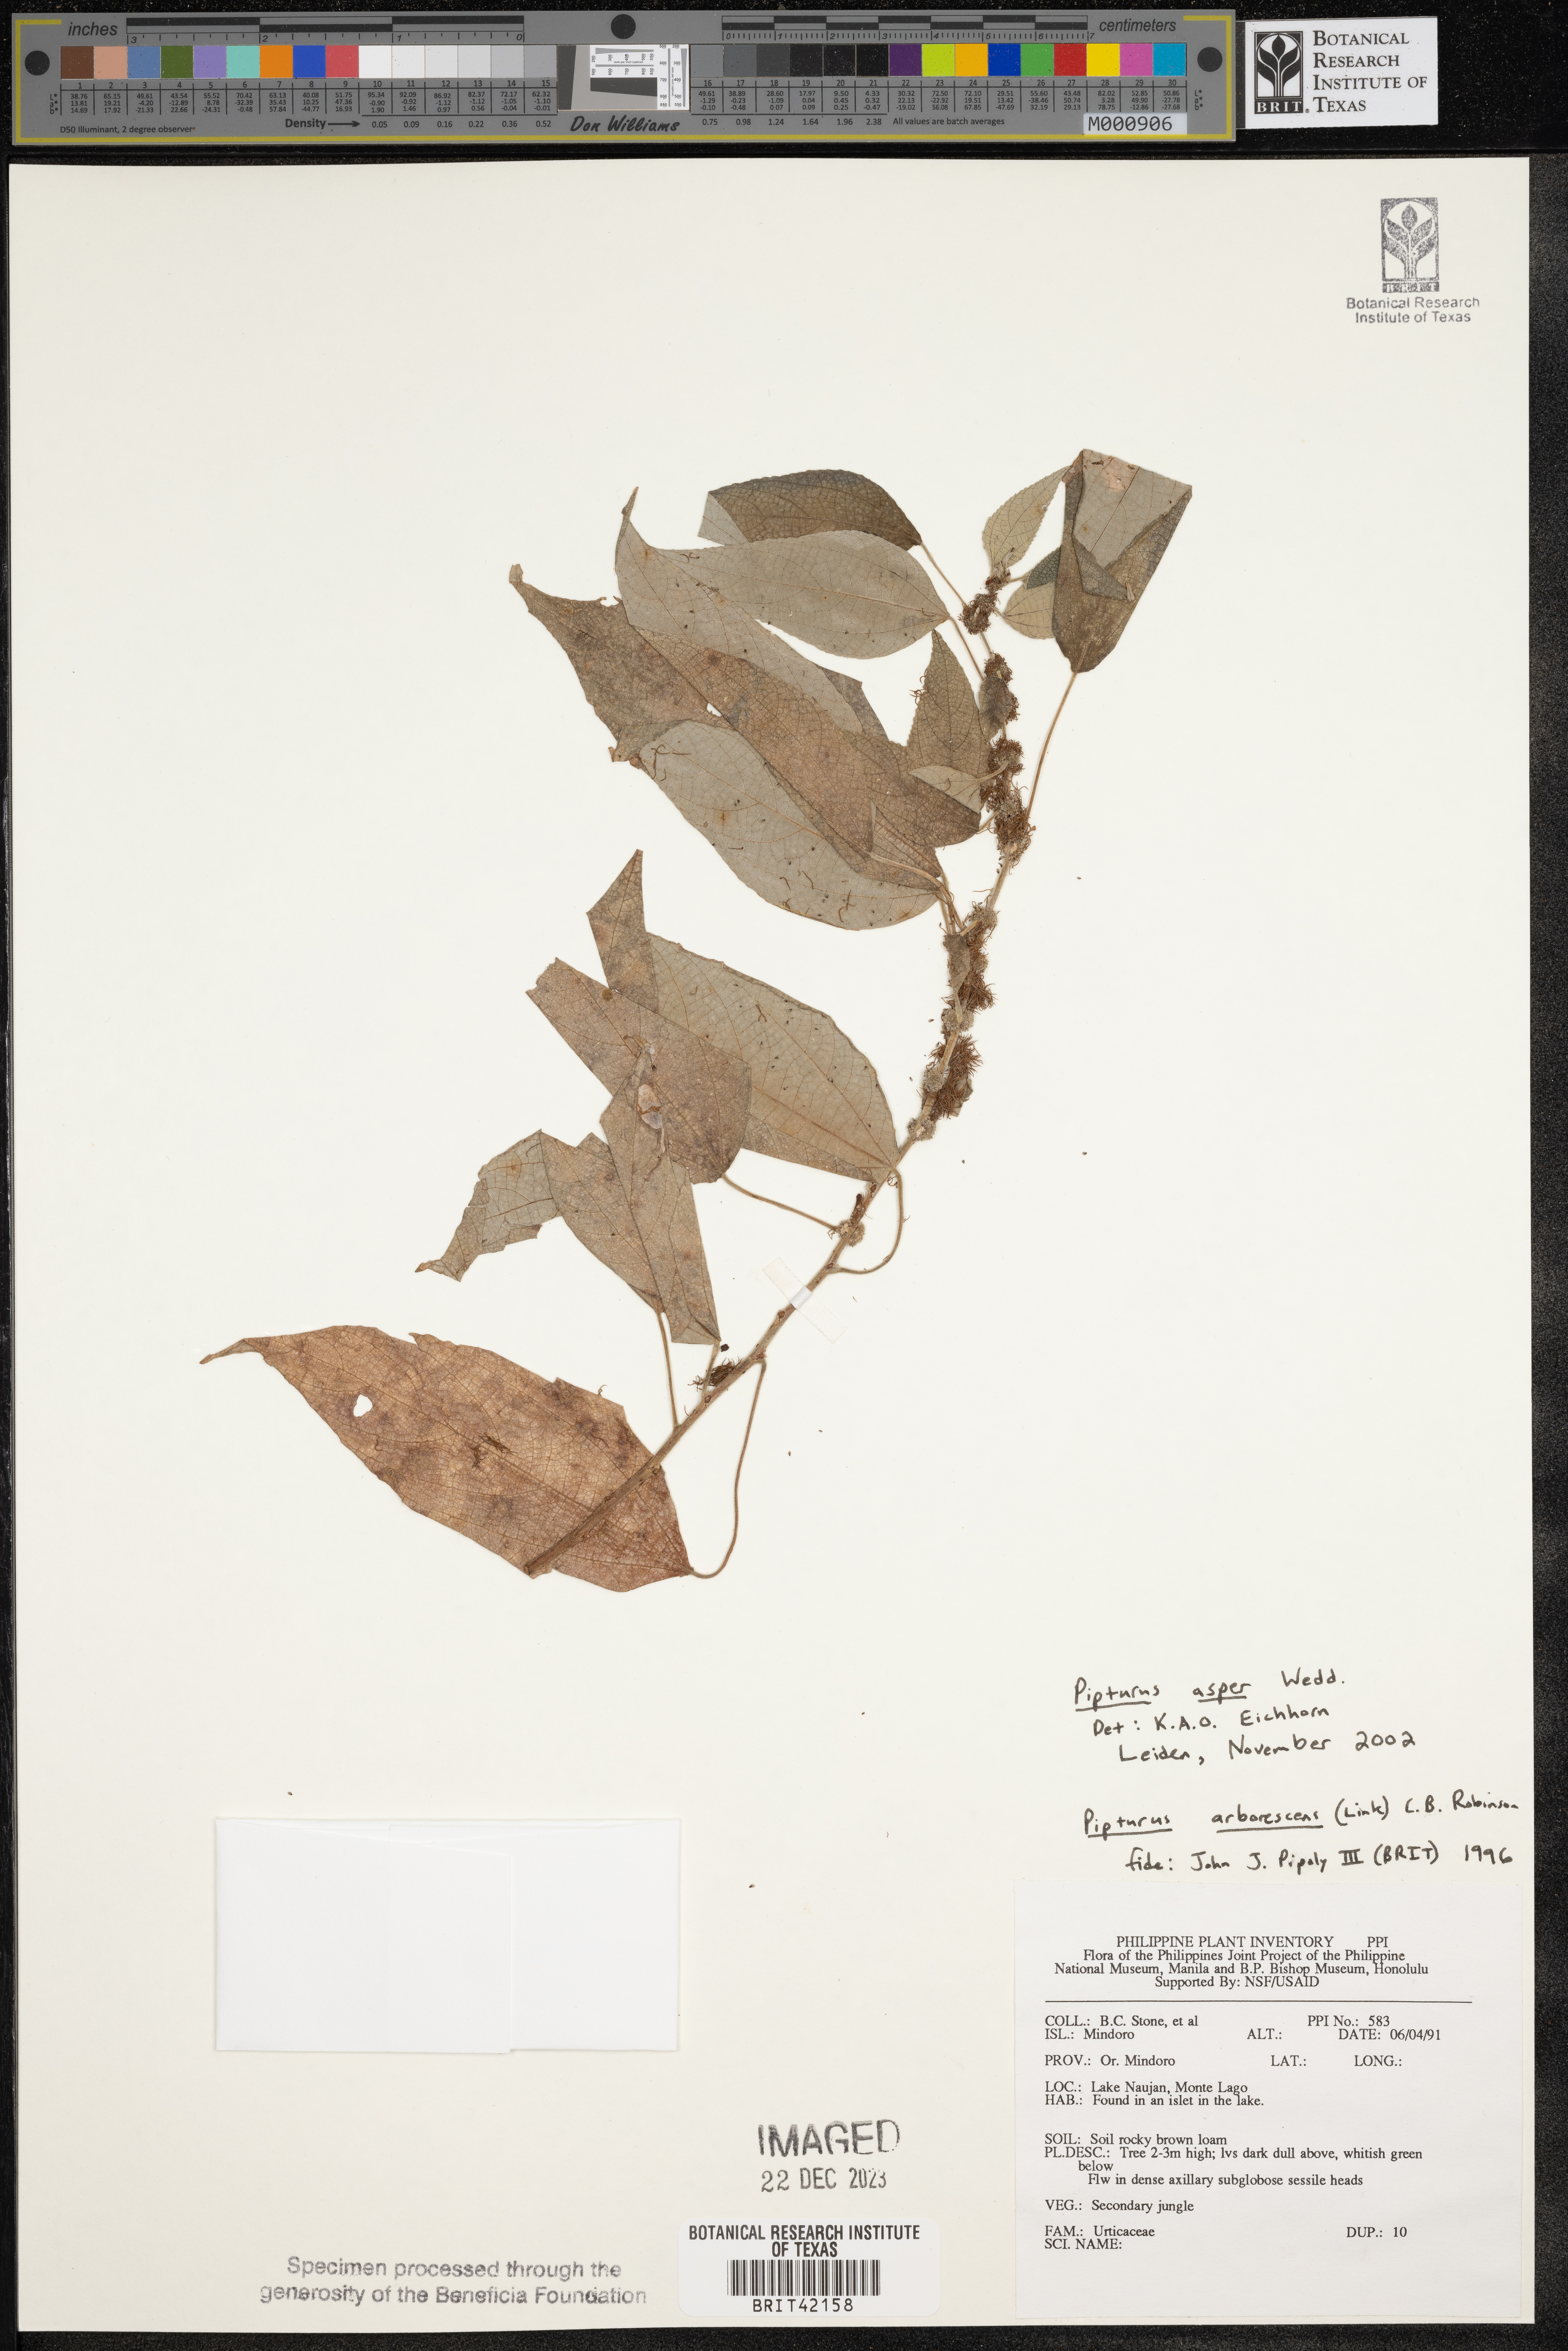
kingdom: Plantae
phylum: Tracheophyta
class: Magnoliopsida
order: Rosales
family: Urticaceae
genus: Pipturus
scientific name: Pipturus argenteus
